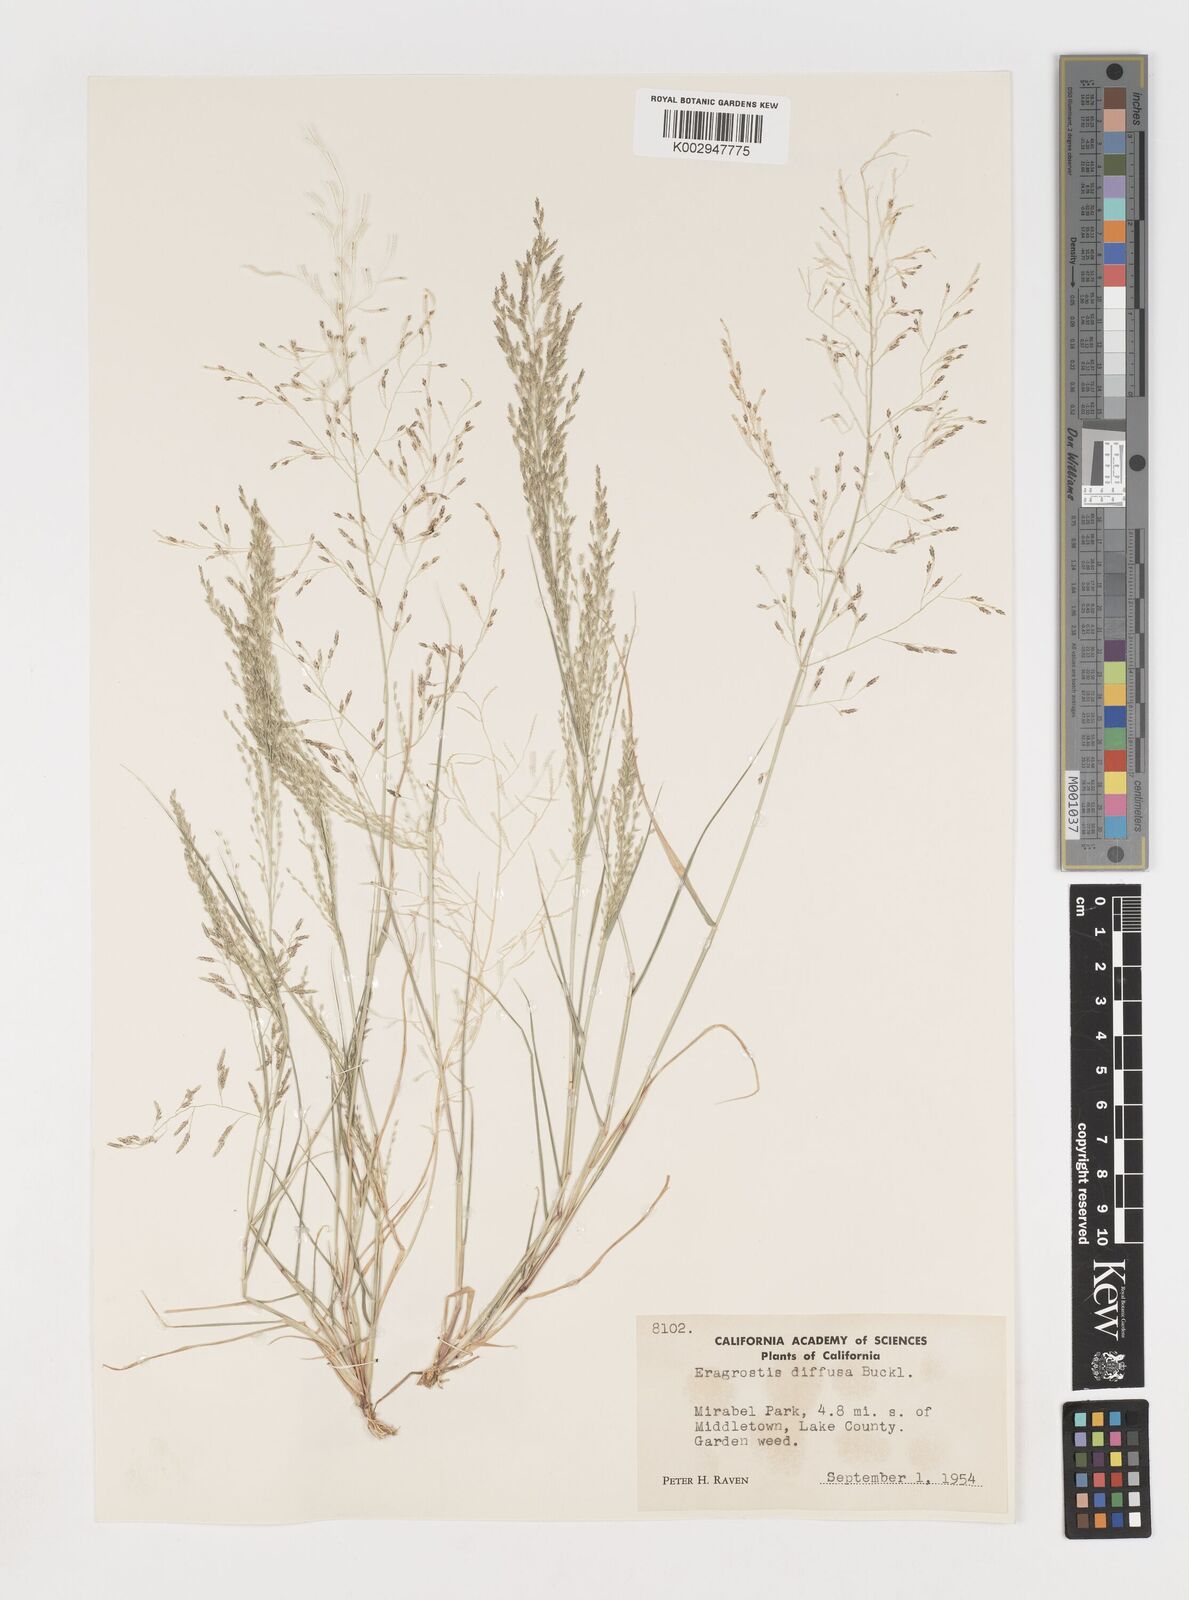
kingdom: Plantae
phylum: Tracheophyta
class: Liliopsida
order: Poales
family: Poaceae
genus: Eragrostis
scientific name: Eragrostis pectinacea
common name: Tufted lovegrass
